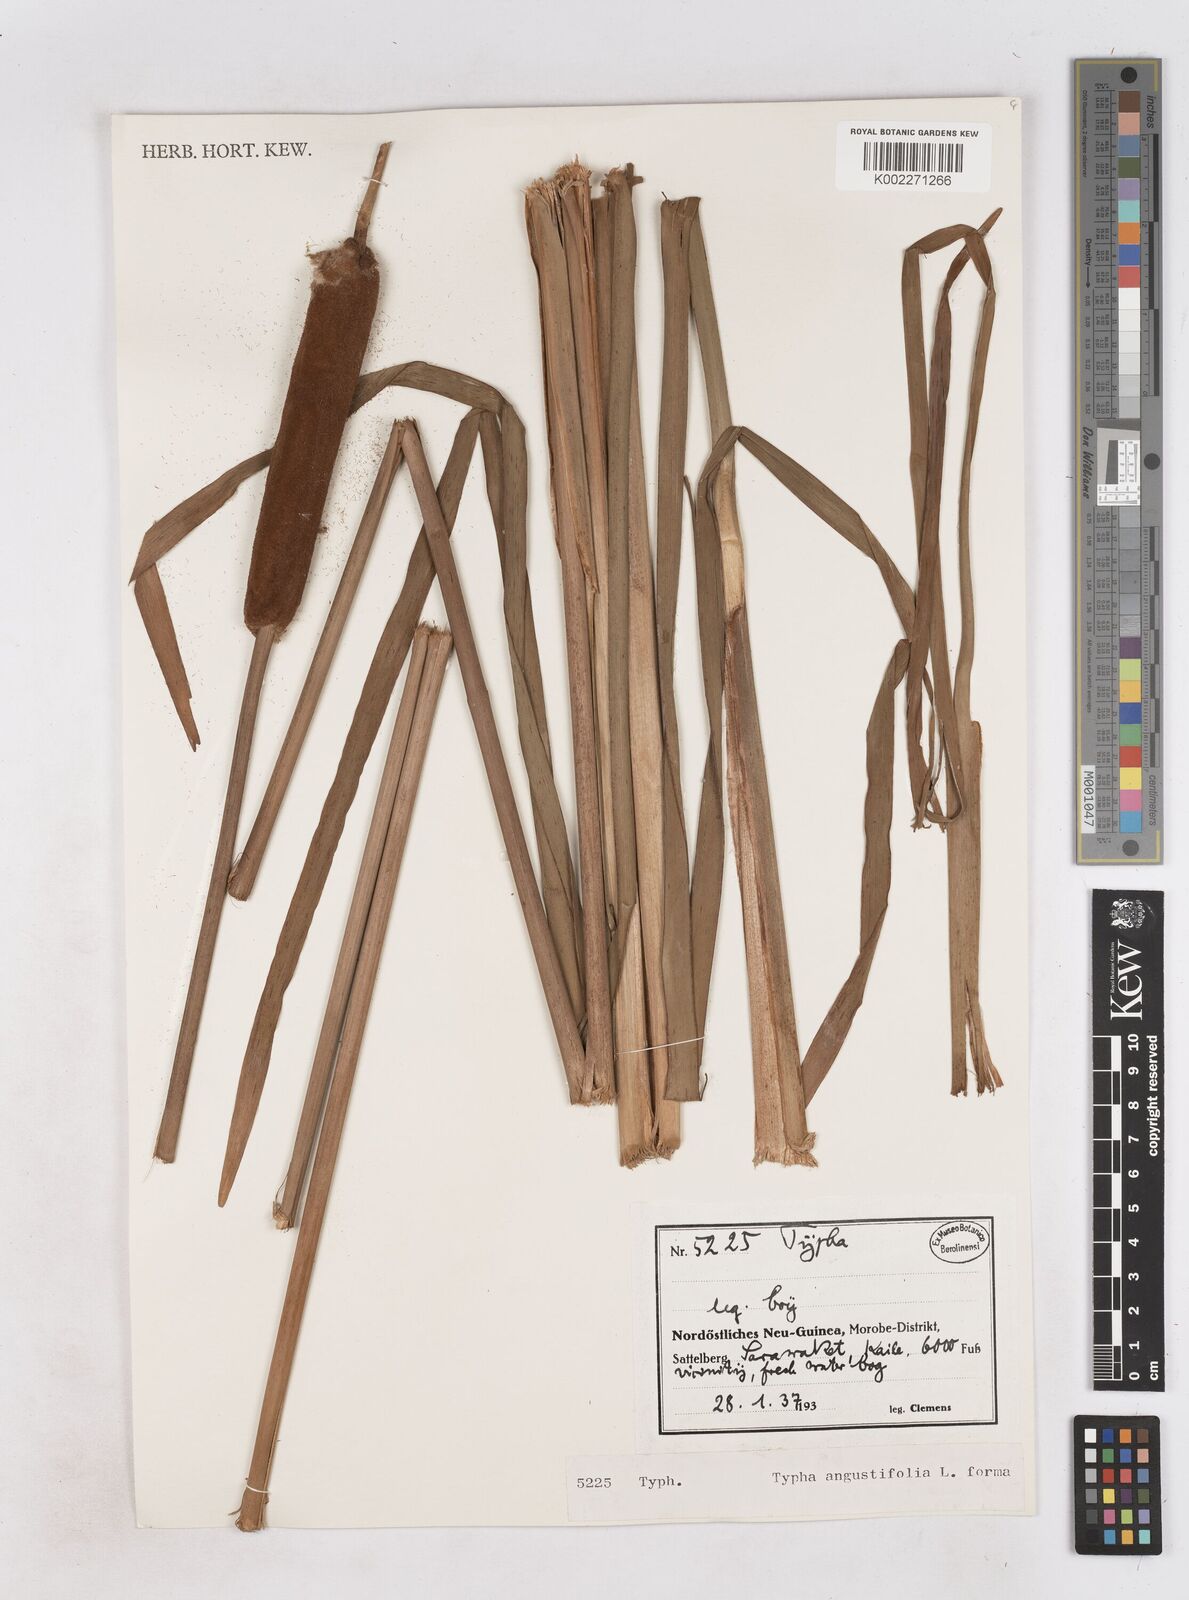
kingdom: Plantae
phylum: Tracheophyta
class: Liliopsida
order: Poales
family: Typhaceae
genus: Typha
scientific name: Typha angustifolia
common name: Lesser bulrush
